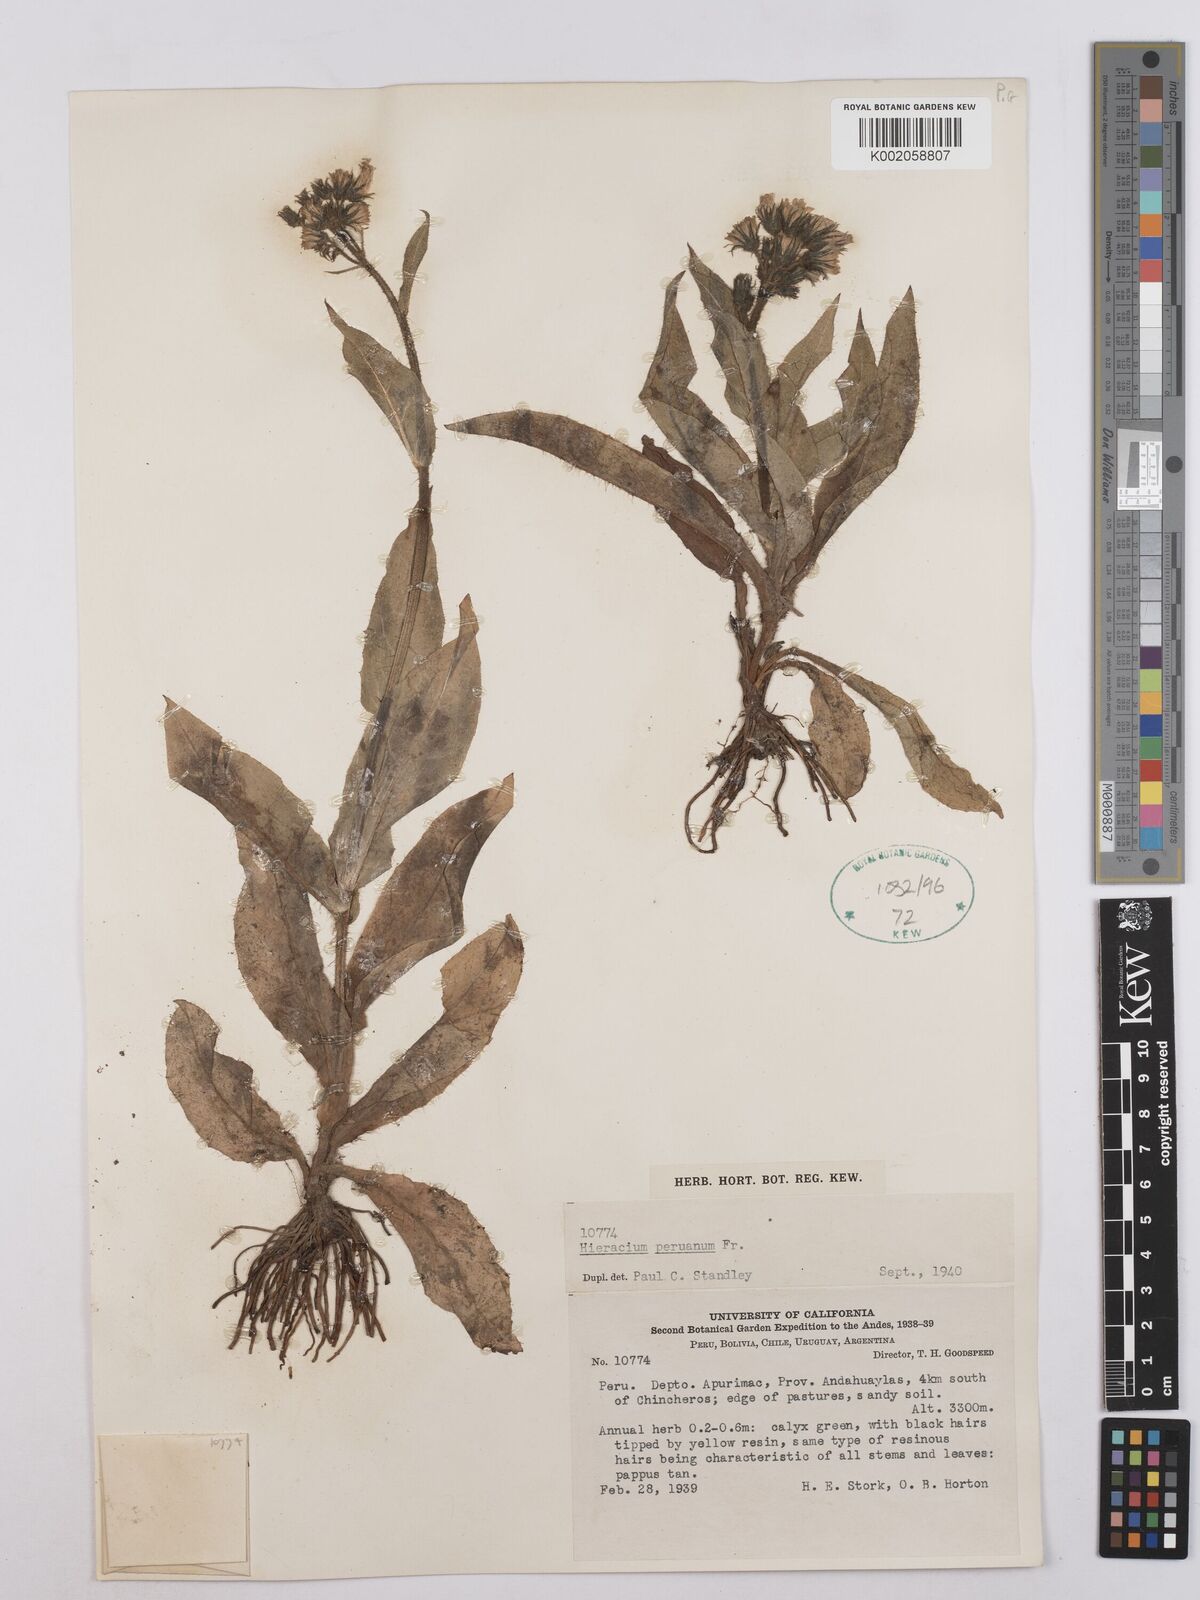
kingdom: Plantae
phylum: Tracheophyta
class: Magnoliopsida
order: Asterales
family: Asteraceae
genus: Hieracium
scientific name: Hieracium peruanum
